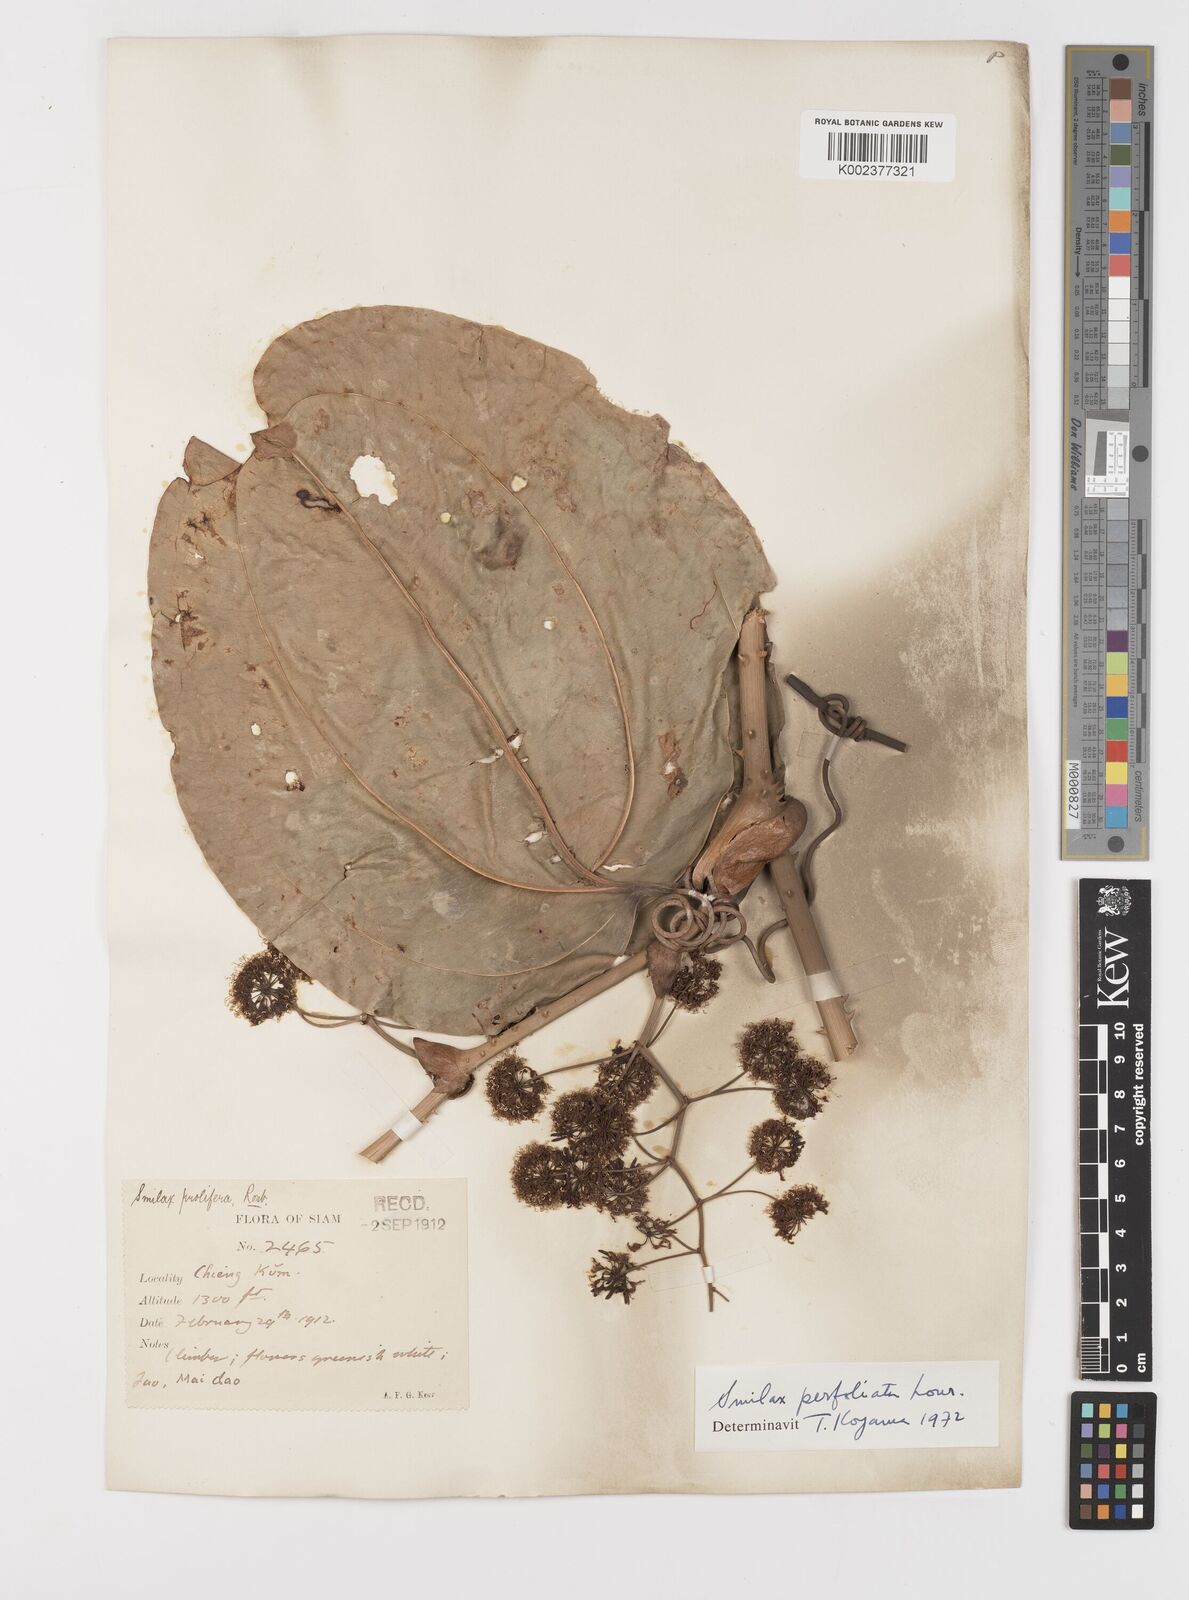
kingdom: Plantae
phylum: Tracheophyta
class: Liliopsida
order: Liliales
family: Smilacaceae
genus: Smilax
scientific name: Smilax perfoliata
